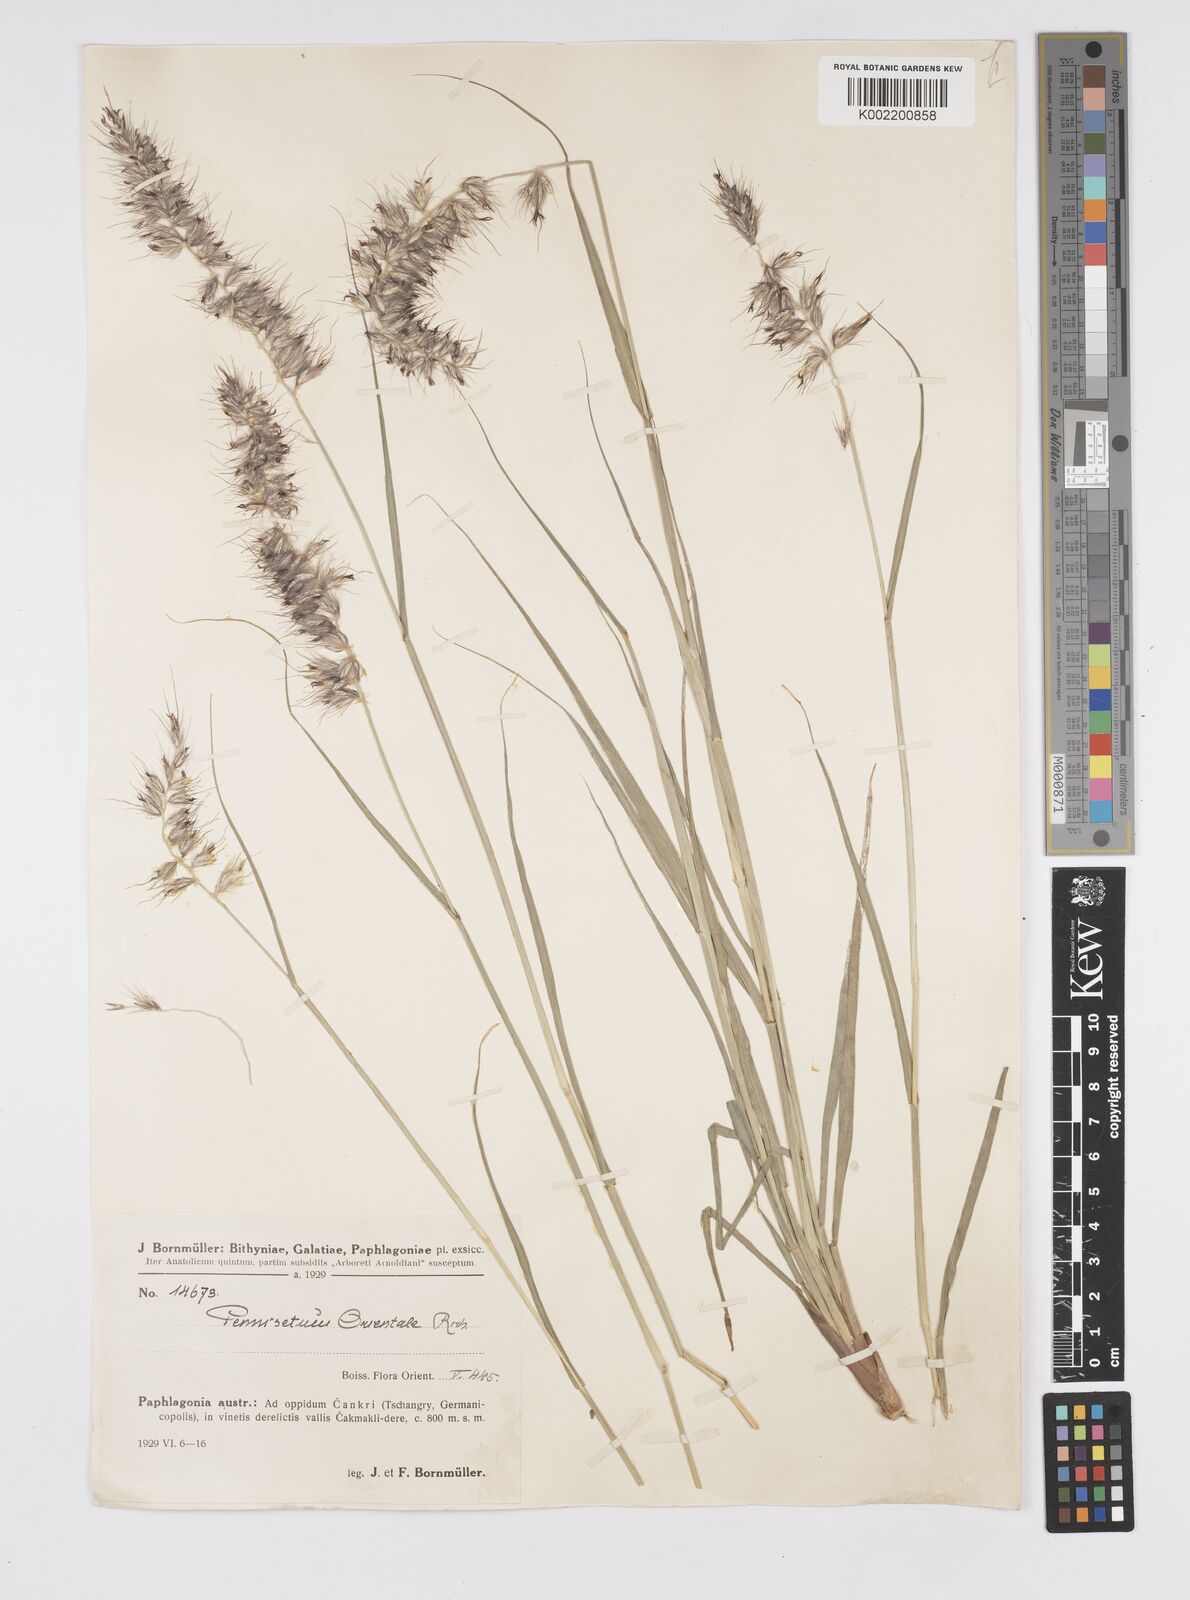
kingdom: Plantae
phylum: Tracheophyta
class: Liliopsida
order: Poales
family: Poaceae
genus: Cenchrus
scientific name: Cenchrus orientalis
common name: Oriental fountain grass
